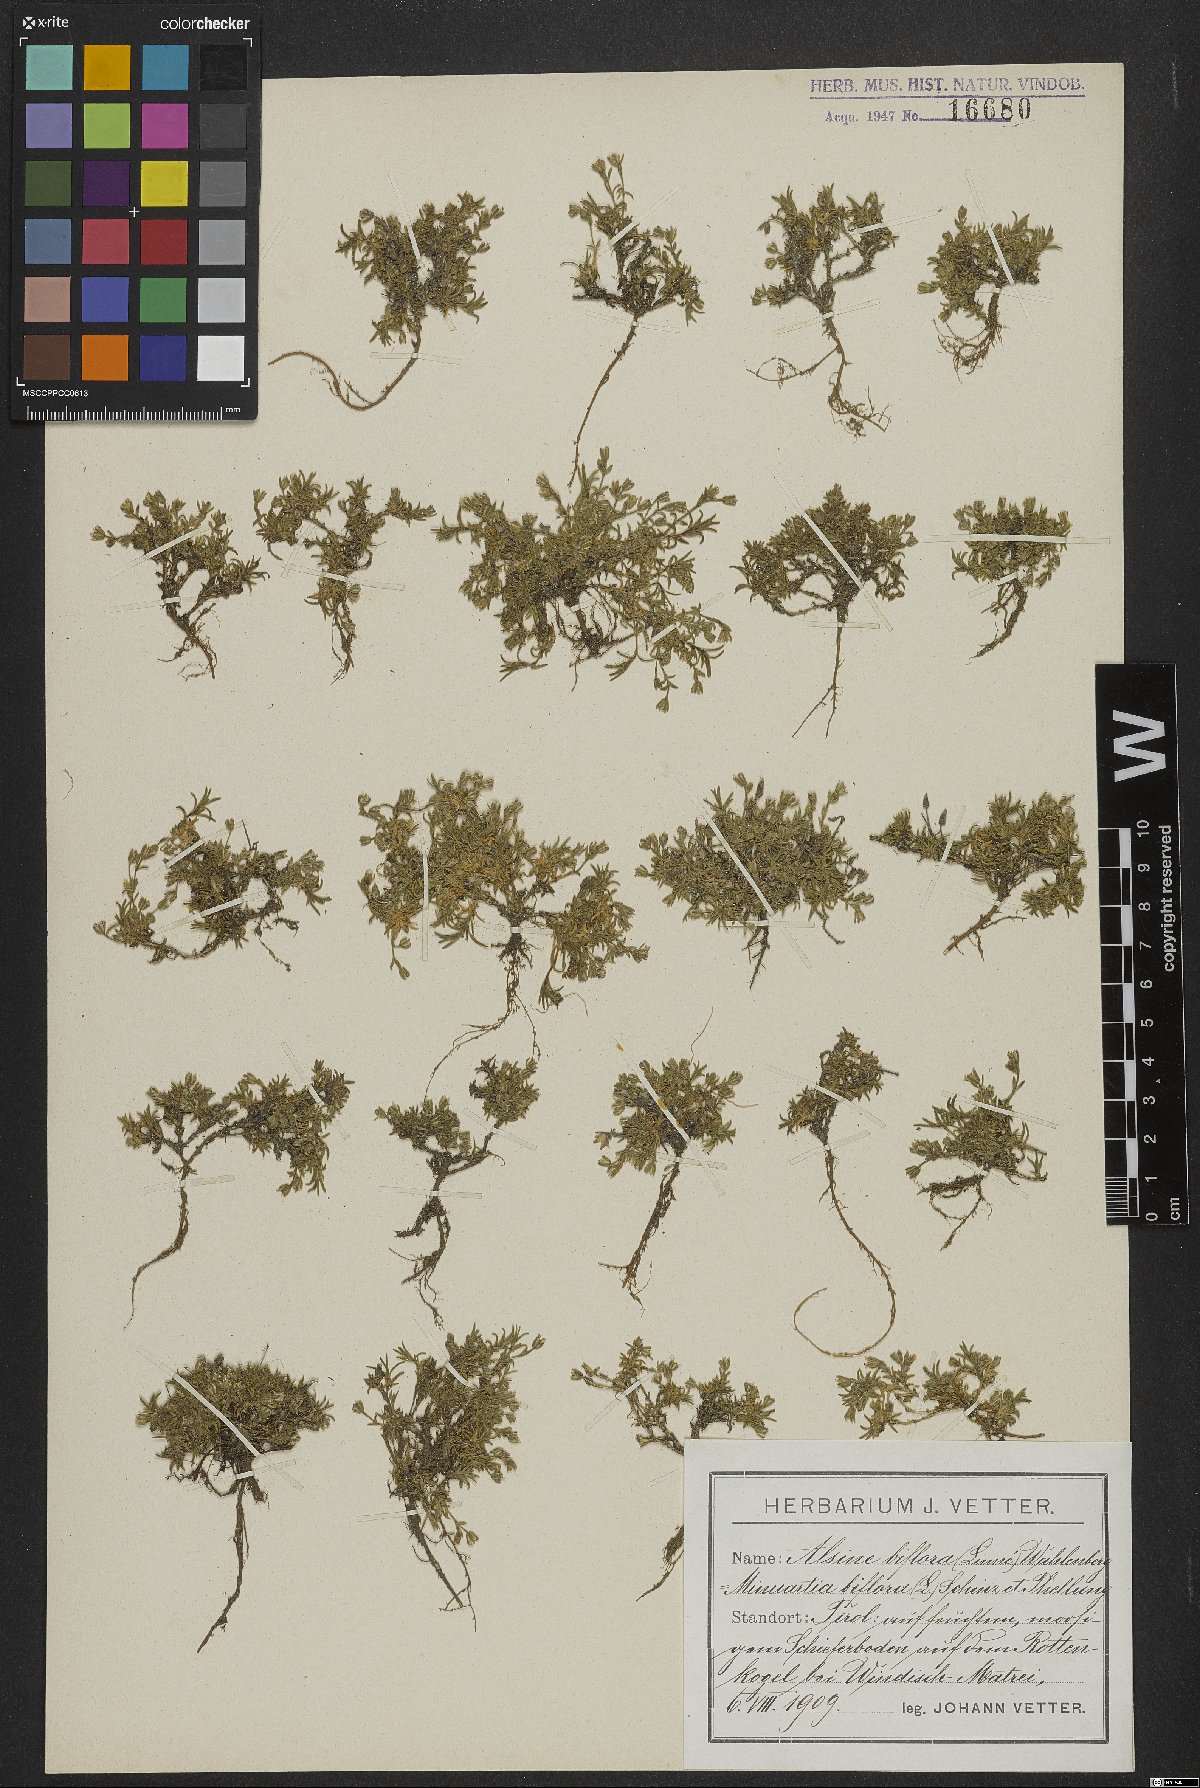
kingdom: Plantae
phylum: Tracheophyta
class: Magnoliopsida
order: Caryophyllales
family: Caryophyllaceae
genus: Cherleria
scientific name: Cherleria biflora
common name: Mountain sandwort
